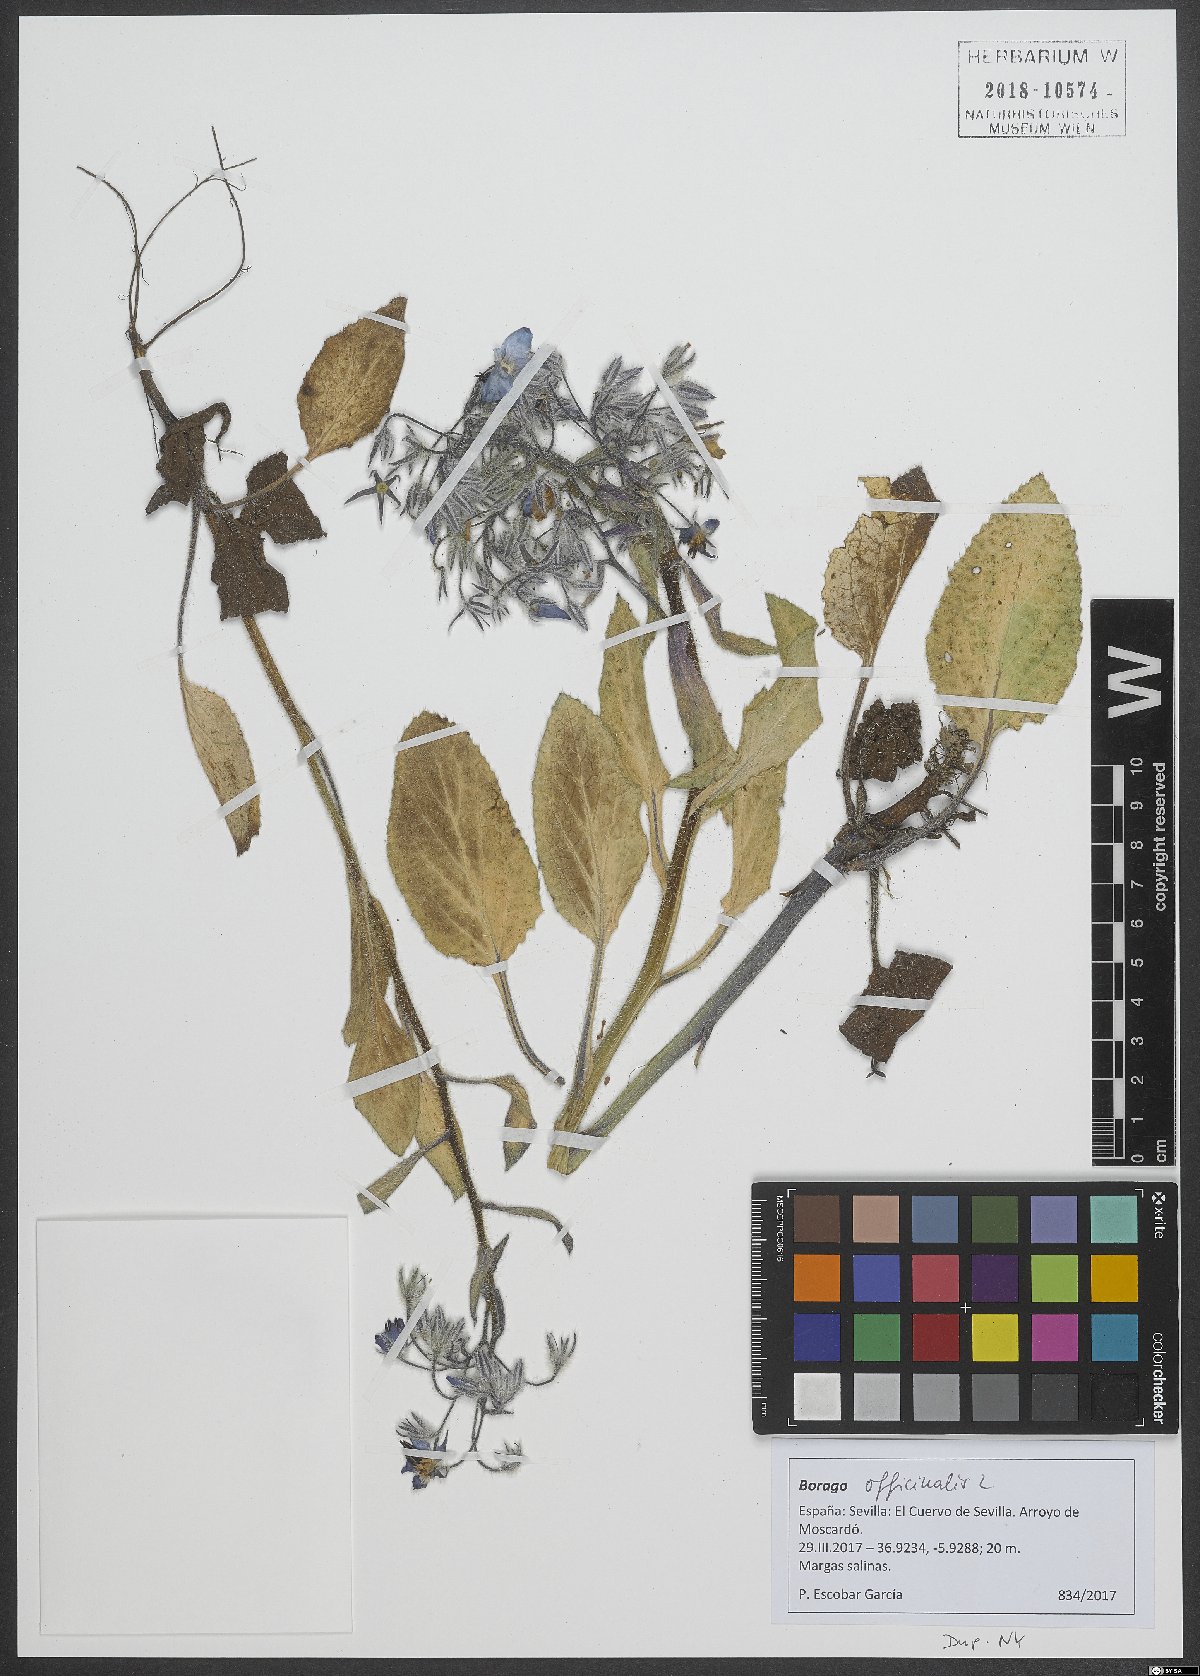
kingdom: Plantae
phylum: Tracheophyta
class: Magnoliopsida
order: Boraginales
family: Boraginaceae
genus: Borago
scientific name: Borago officinalis
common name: Borage
